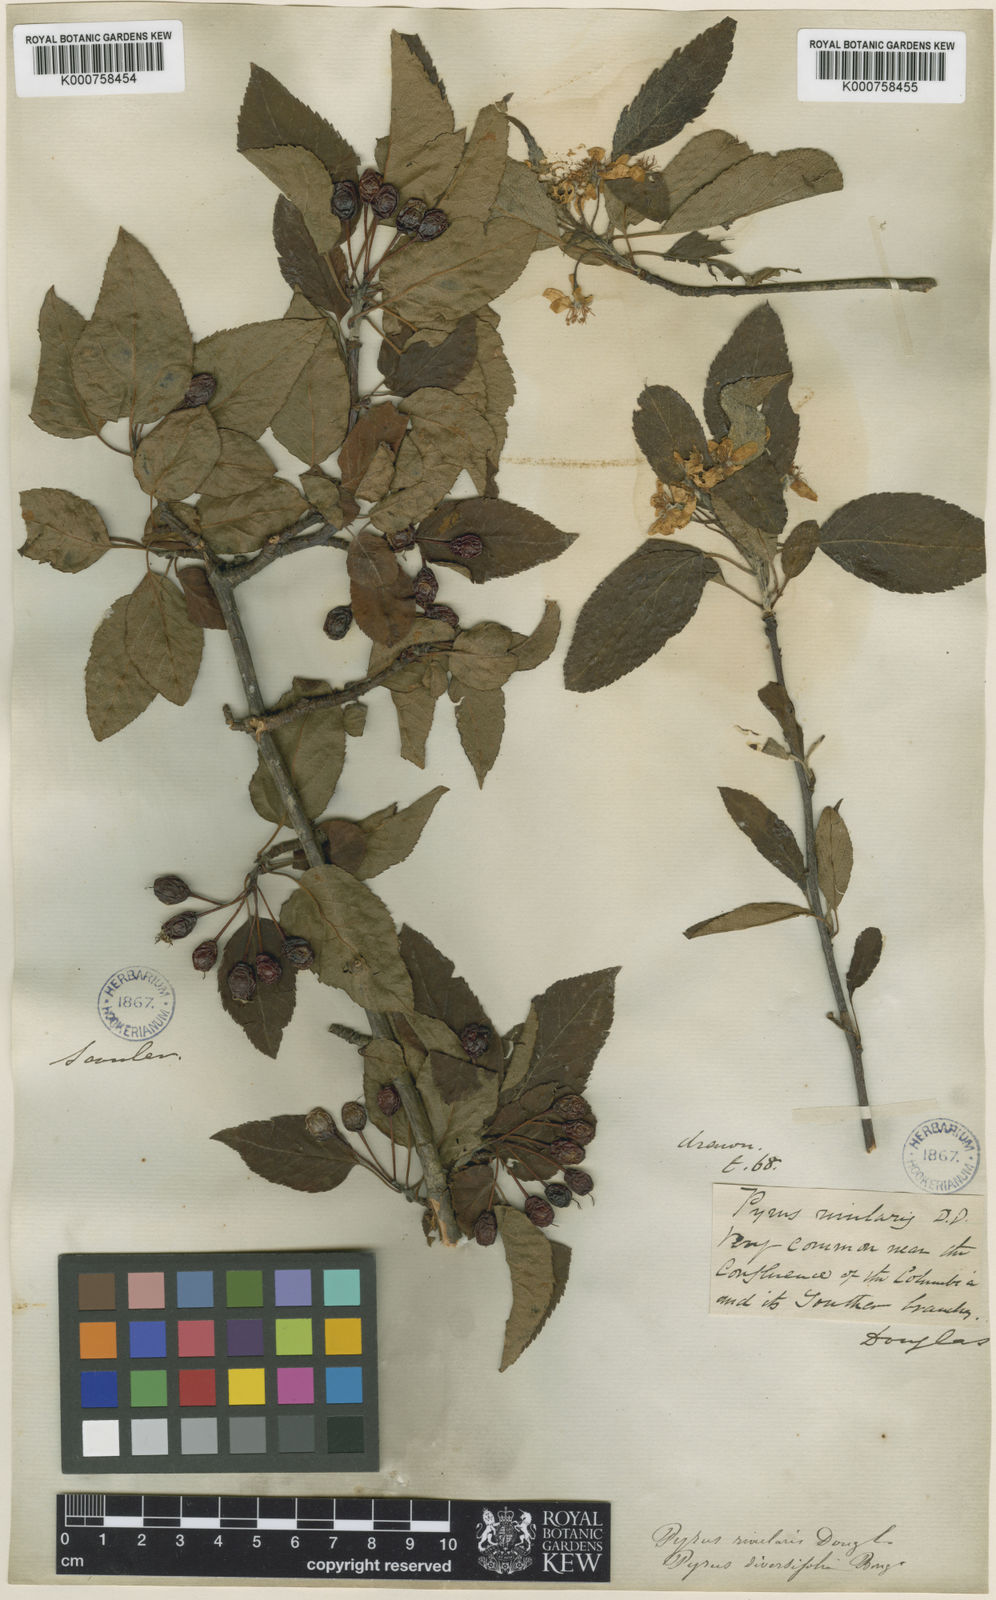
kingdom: Plantae
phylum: Tracheophyta
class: Magnoliopsida
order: Rosales
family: Rosaceae
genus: Malus
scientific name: Malus fusca
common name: Oregon crab apple
